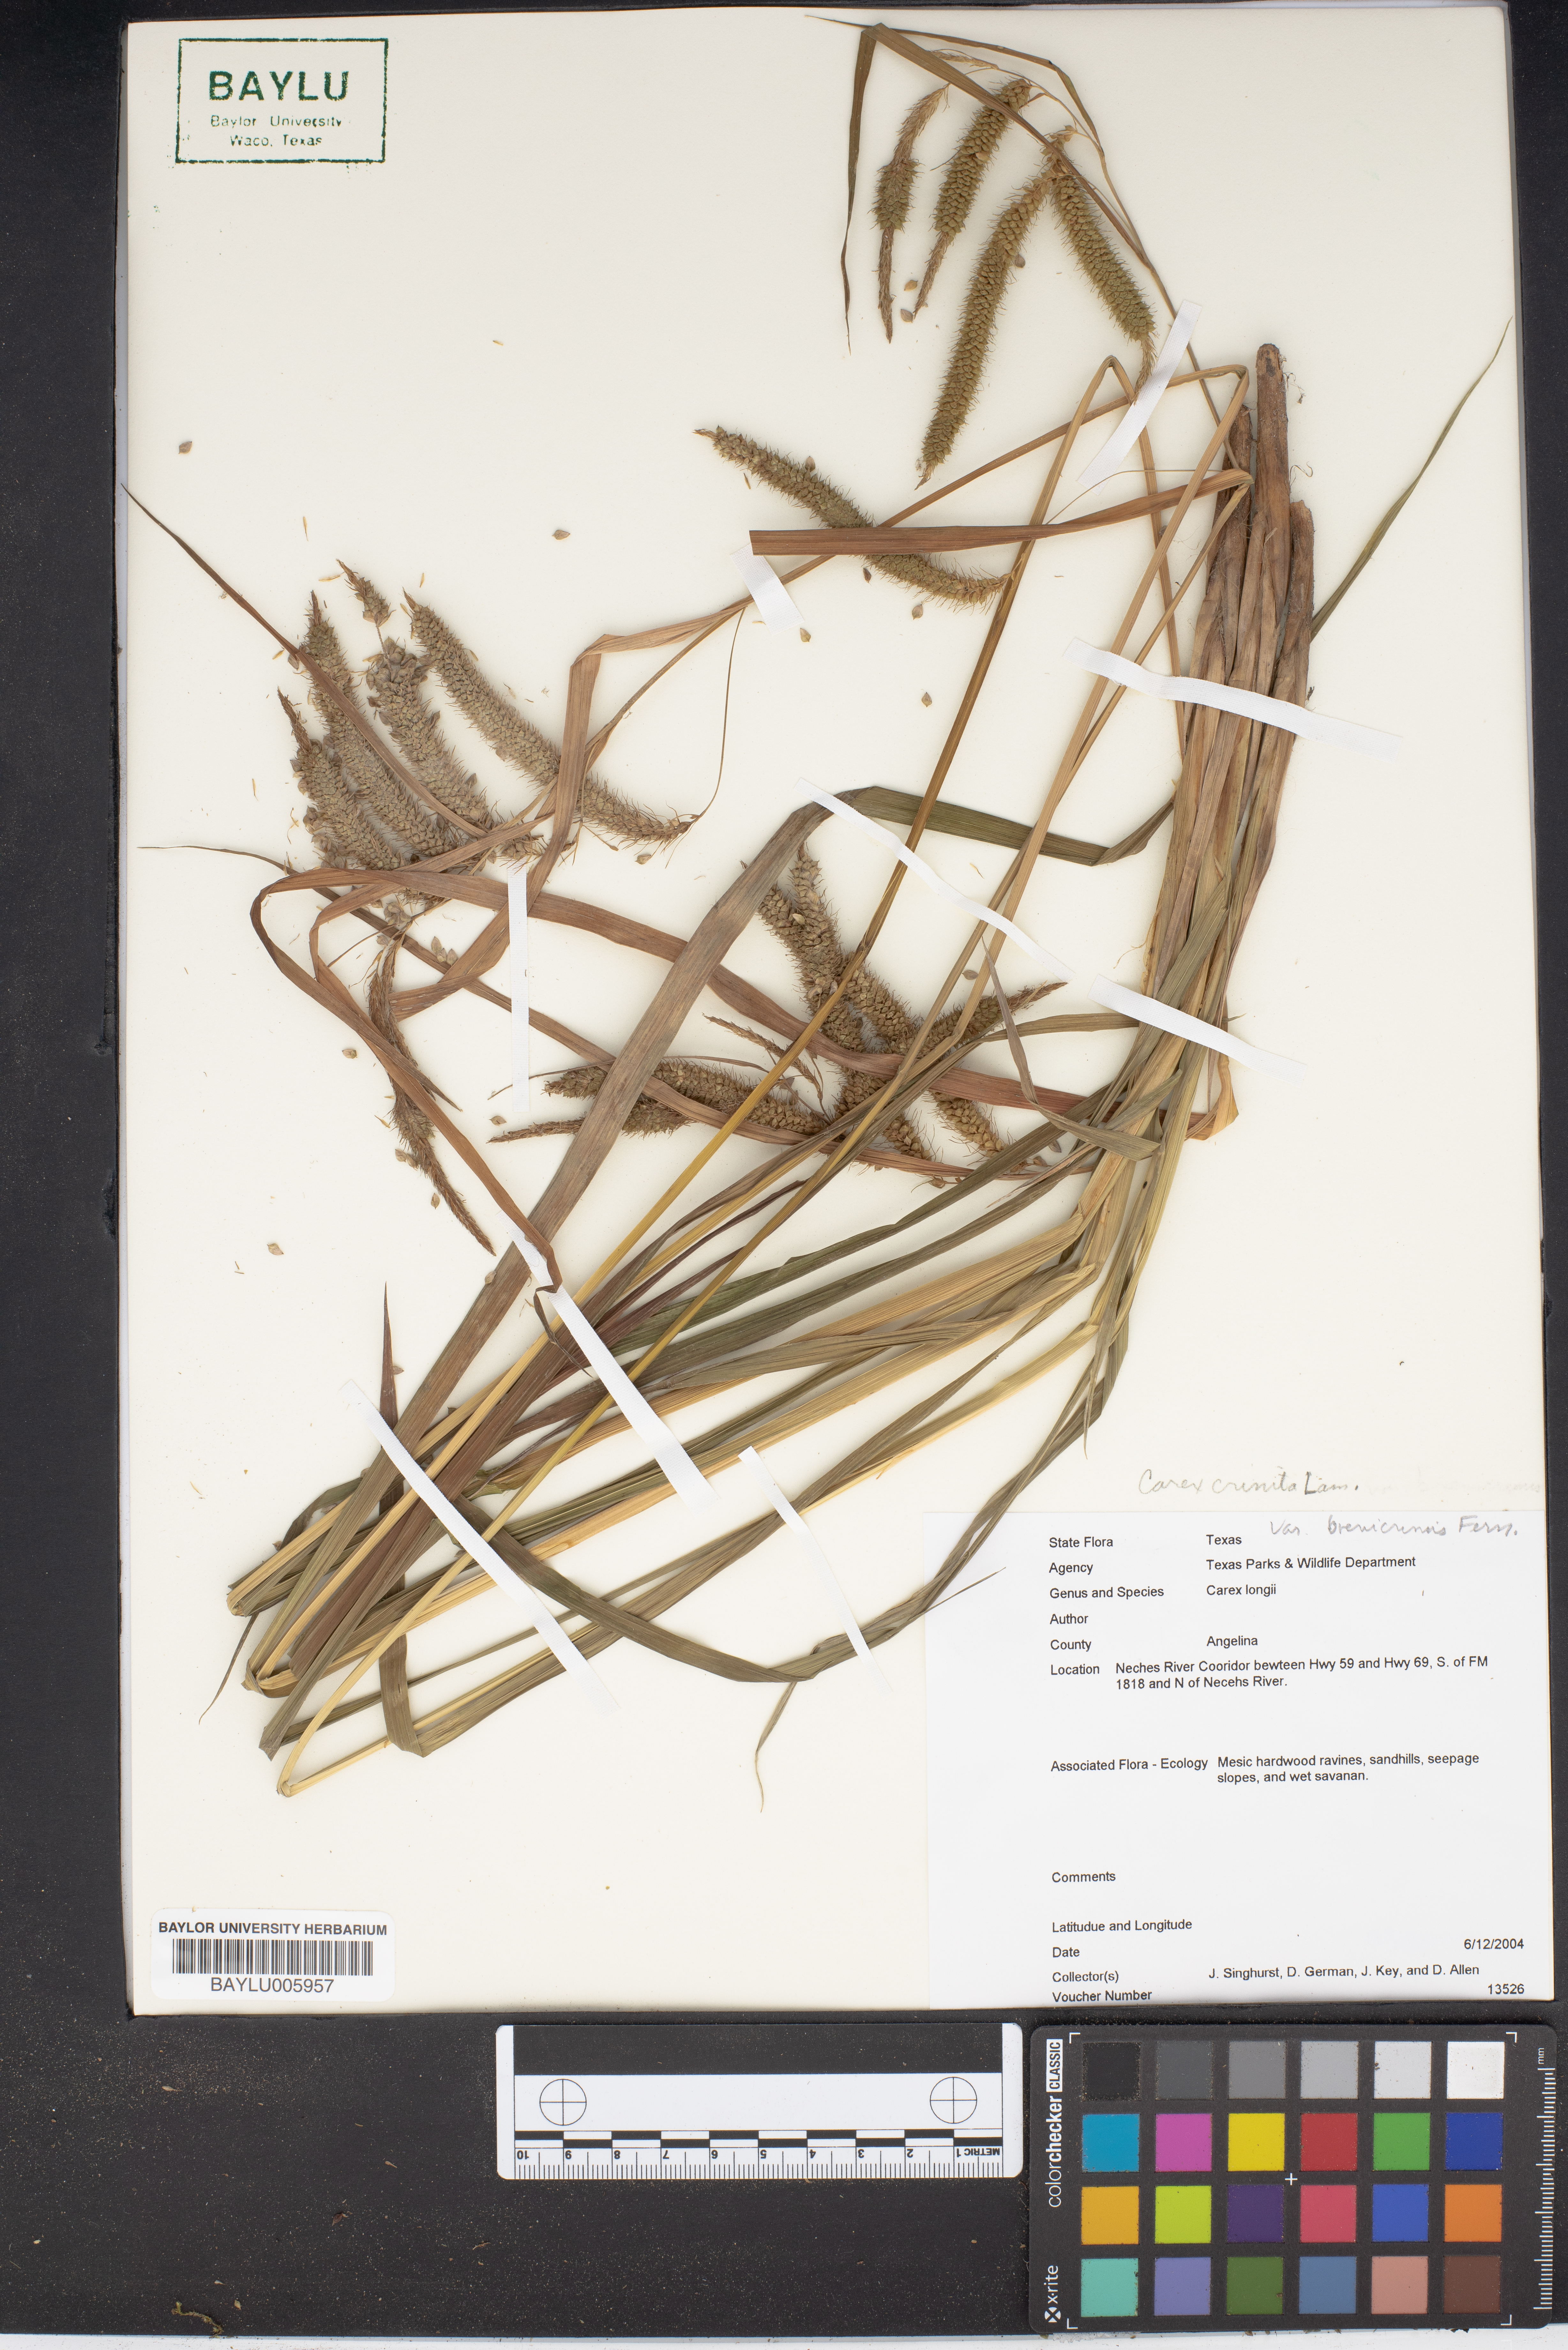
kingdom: Plantae
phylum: Tracheophyta
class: Liliopsida
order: Poales
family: Cyperaceae
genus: Carex
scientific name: Carex longii
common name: Long's sedge
